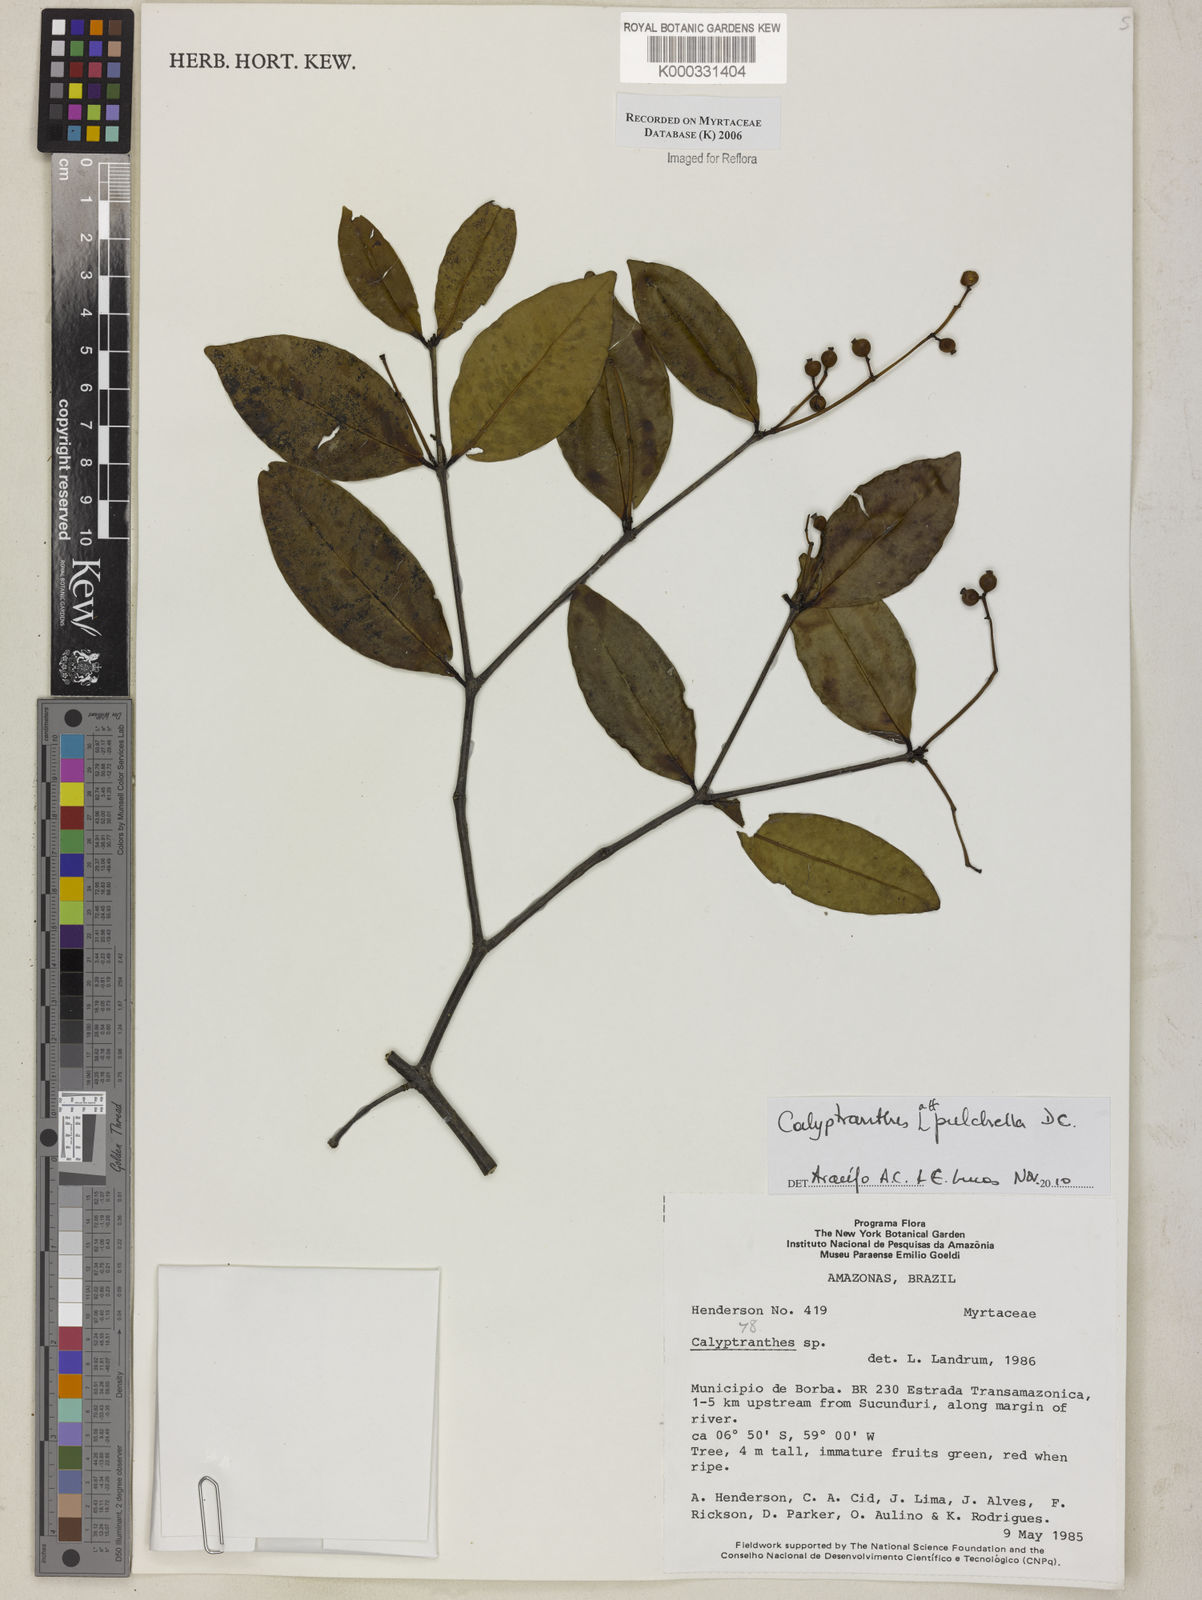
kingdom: Plantae
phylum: Tracheophyta
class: Magnoliopsida
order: Myrtales
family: Myrtaceae
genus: Calyptranthes
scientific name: Calyptranthes
